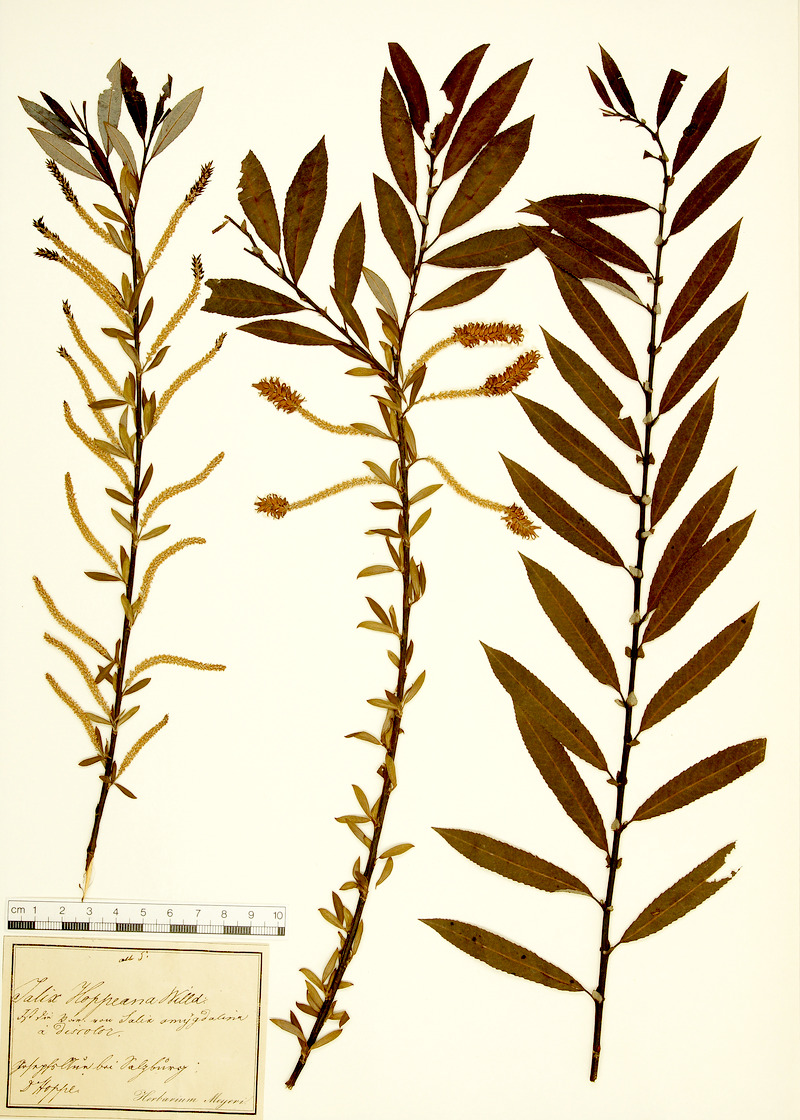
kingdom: Plantae
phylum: Tracheophyta
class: Magnoliopsida
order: Malpighiales
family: Salicaceae
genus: Salix
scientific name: Salix triandra
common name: Almond willow
